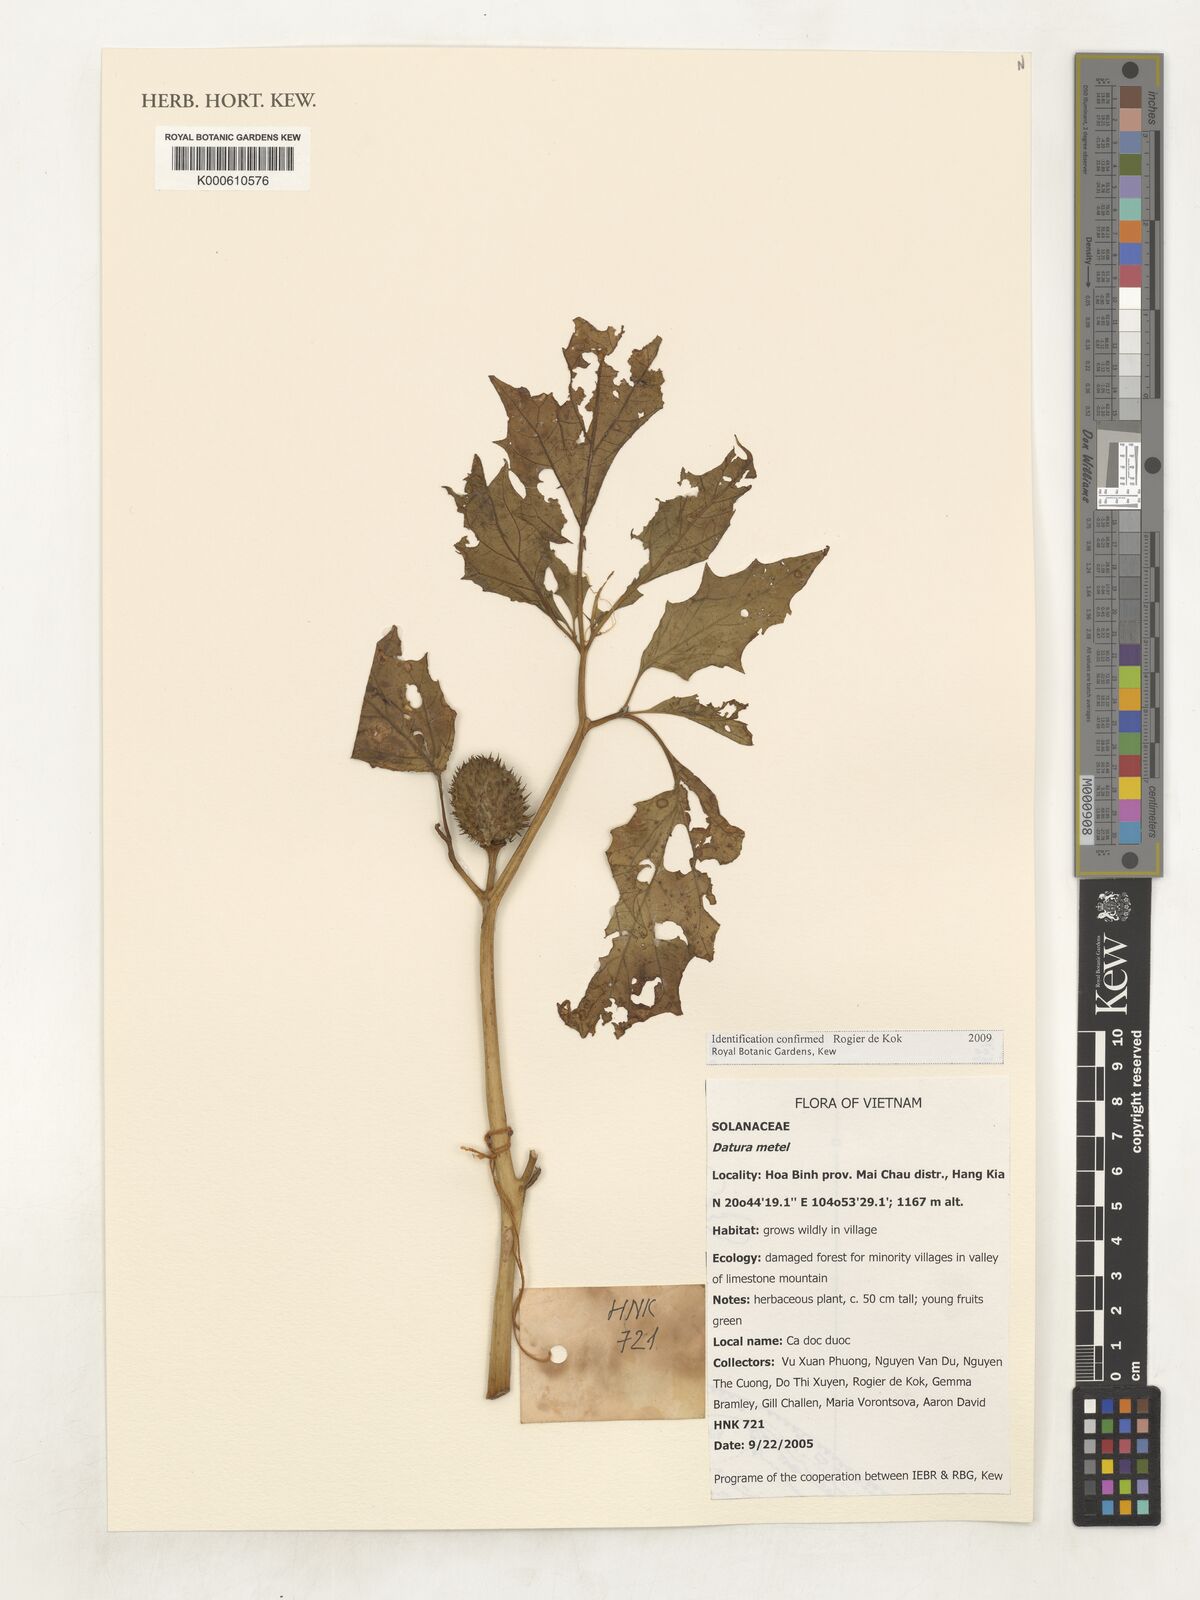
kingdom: Plantae
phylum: Tracheophyta
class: Magnoliopsida
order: Solanales
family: Solanaceae
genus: Datura
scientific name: Datura metel
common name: Jimsonweed
